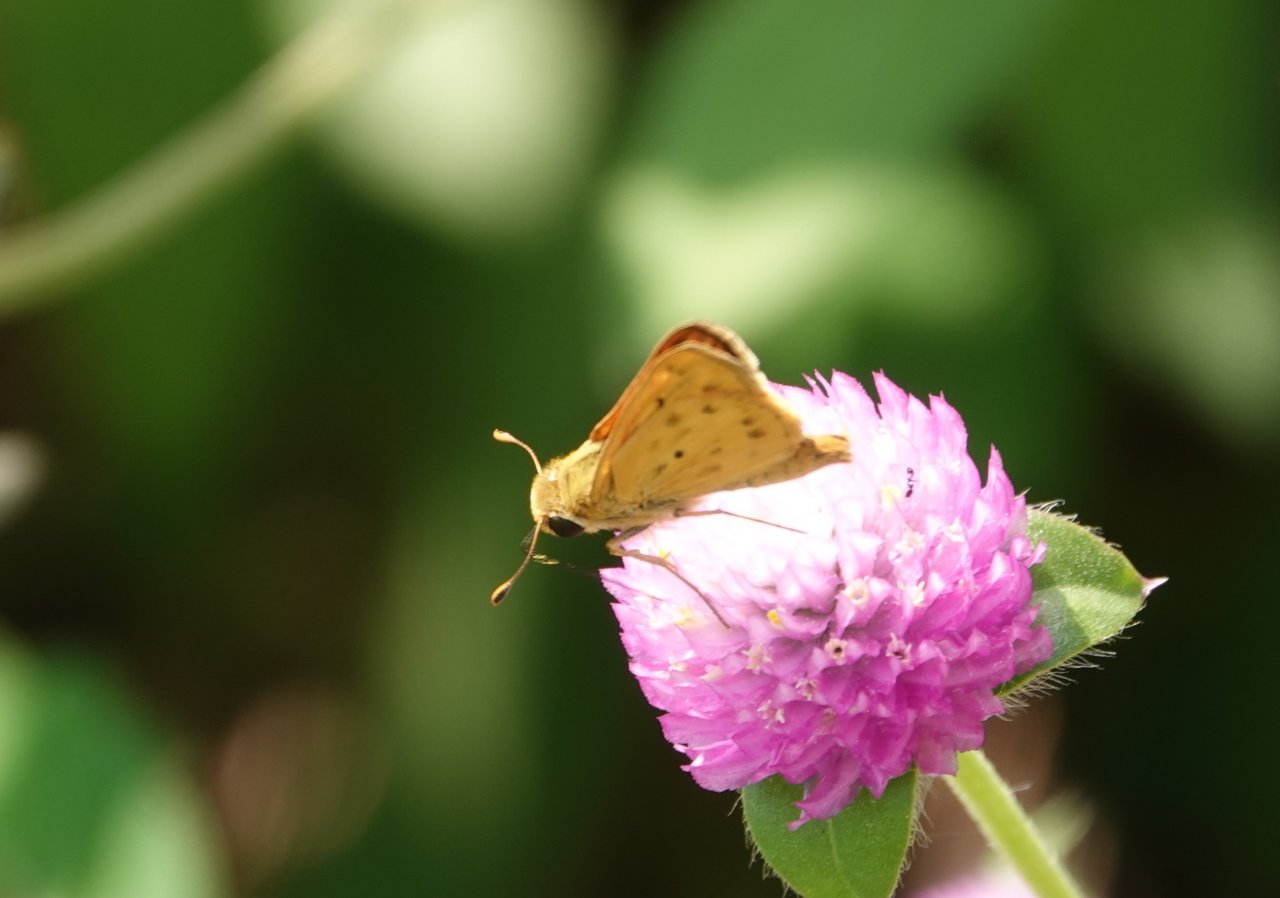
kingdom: Animalia
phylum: Arthropoda
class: Insecta
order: Lepidoptera
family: Hesperiidae
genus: Hylephila
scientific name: Hylephila phyleus
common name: Fiery Skipper
